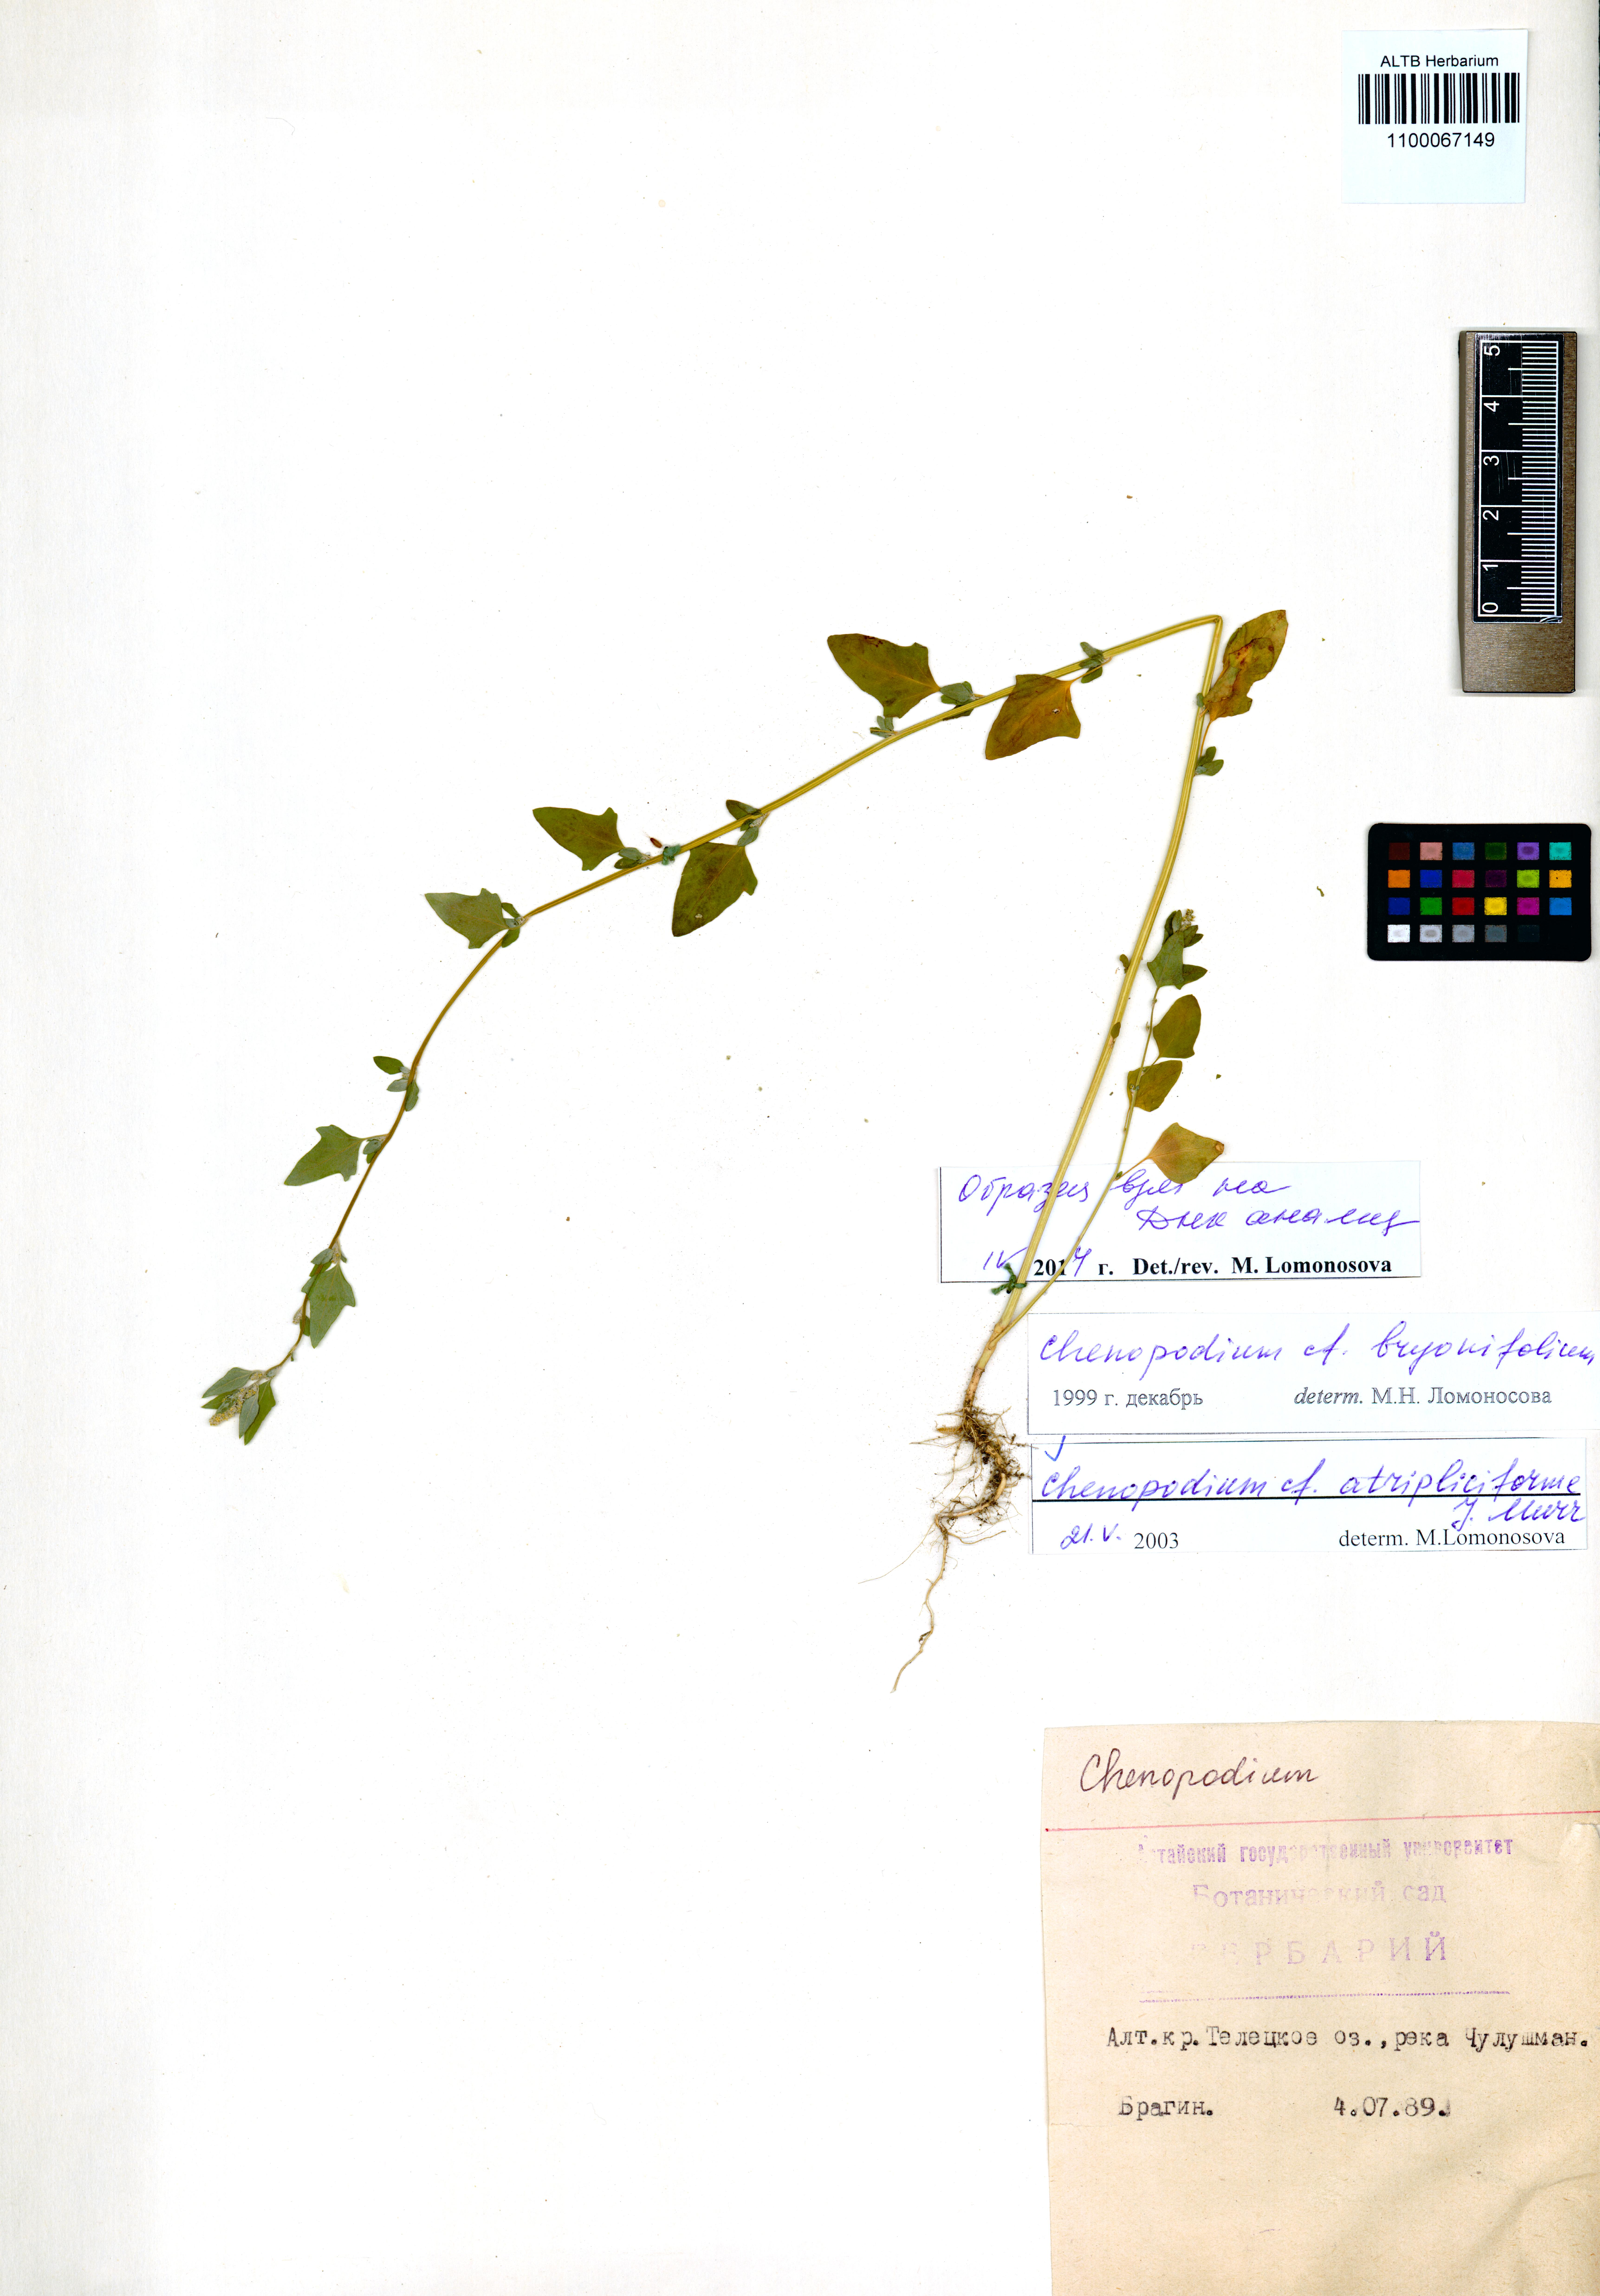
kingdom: Plantae
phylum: Tracheophyta
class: Magnoliopsida
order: Caryophyllales
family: Amaranthaceae
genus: Dysphania
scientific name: Dysphania atriplicifolia
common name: Plains tumbleweed
